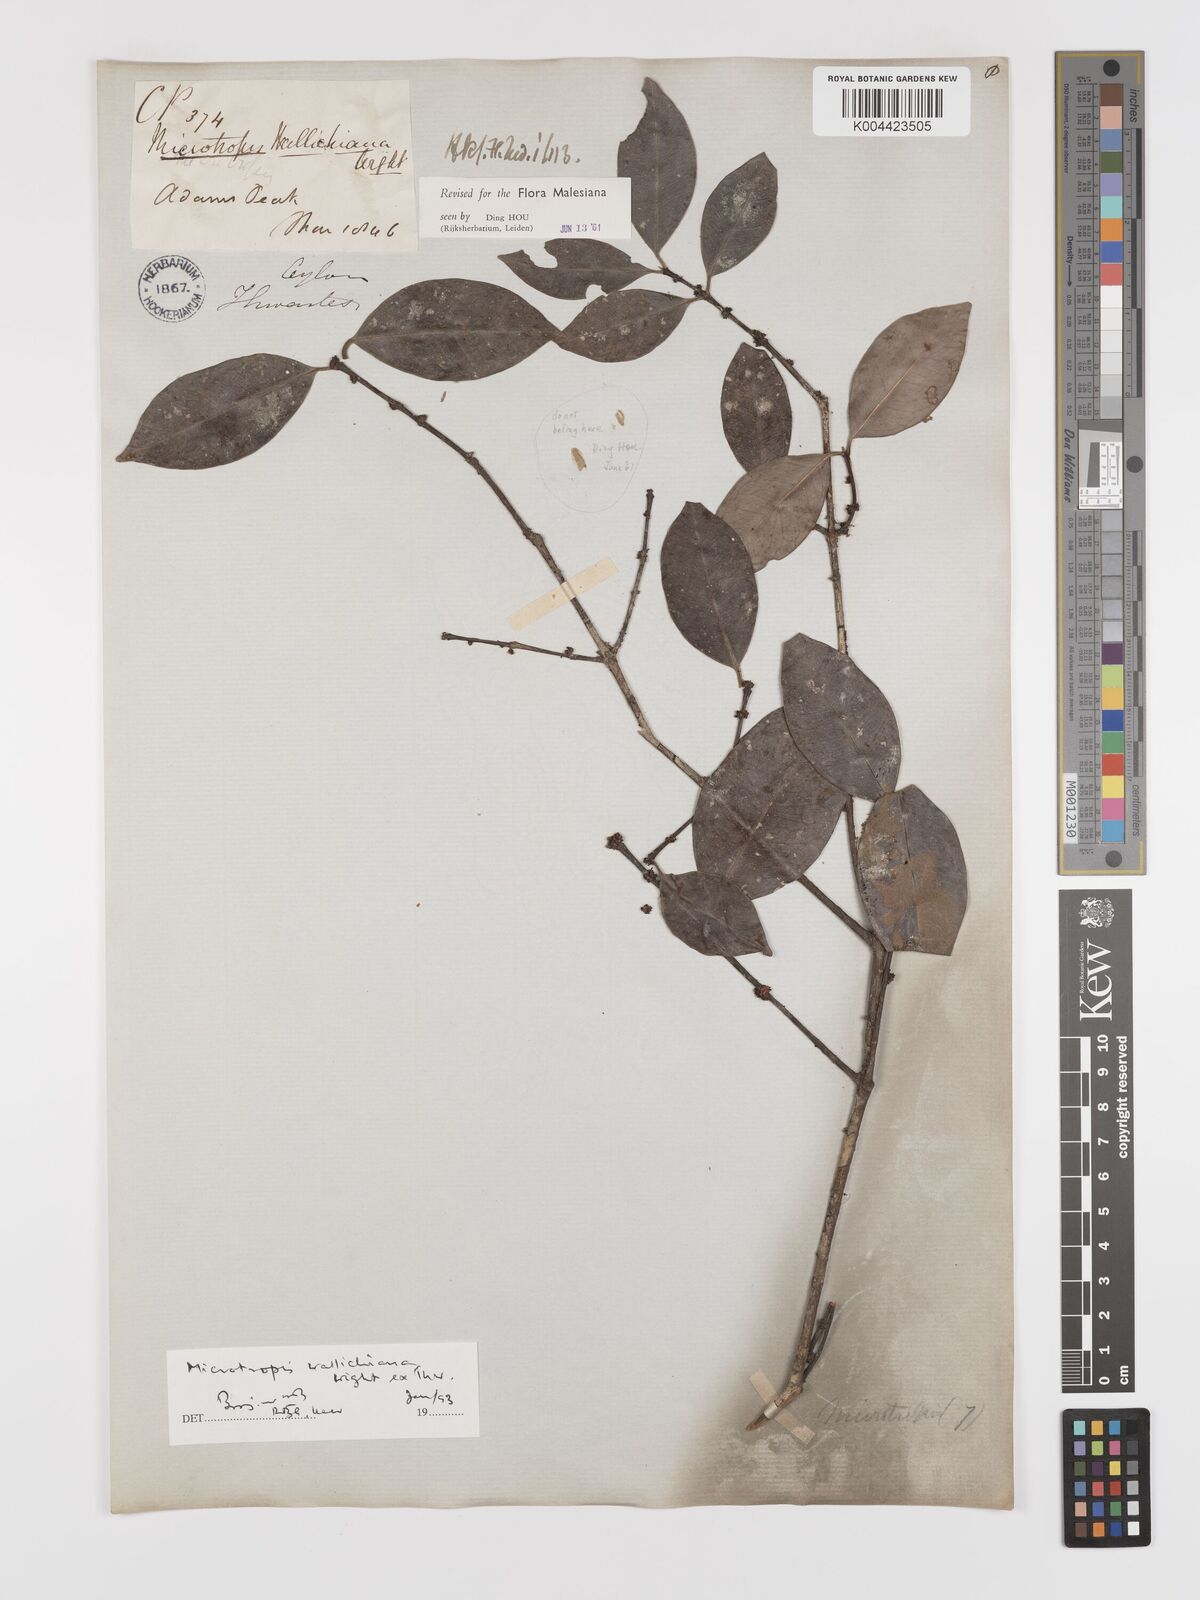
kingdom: Plantae
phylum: Tracheophyta
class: Magnoliopsida
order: Celastrales
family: Celastraceae
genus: Microtropis
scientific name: Microtropis wallichiana
